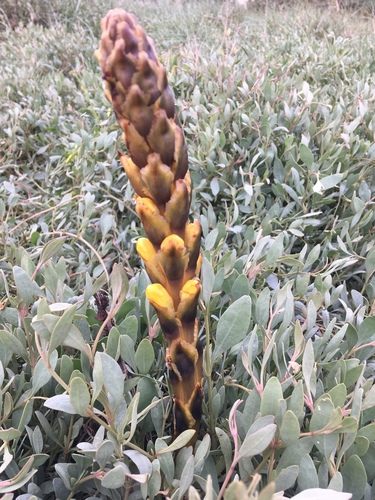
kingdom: Plantae
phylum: Tracheophyta
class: Magnoliopsida
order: Lamiales
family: Orobanchaceae
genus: Cistanche
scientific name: Cistanche phelypaea
